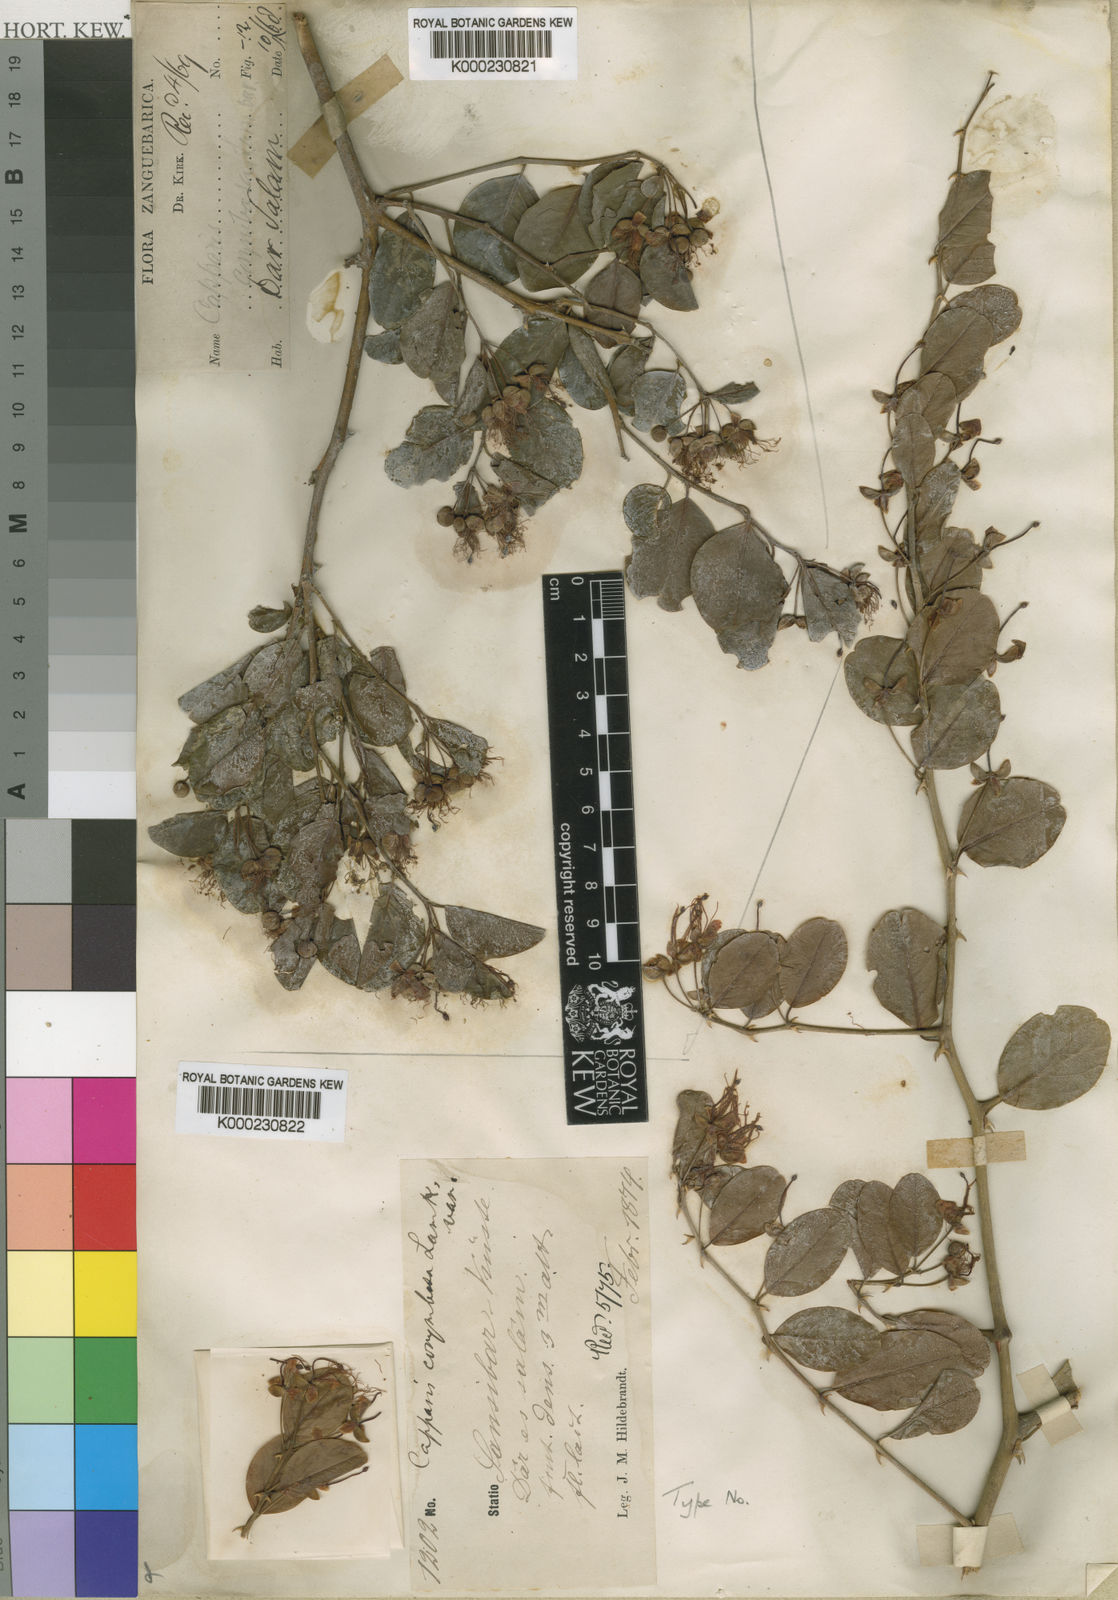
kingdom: Plantae
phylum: Tracheophyta
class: Magnoliopsida
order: Brassicales
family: Capparaceae
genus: Capparis
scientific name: Capparis sepiaria
